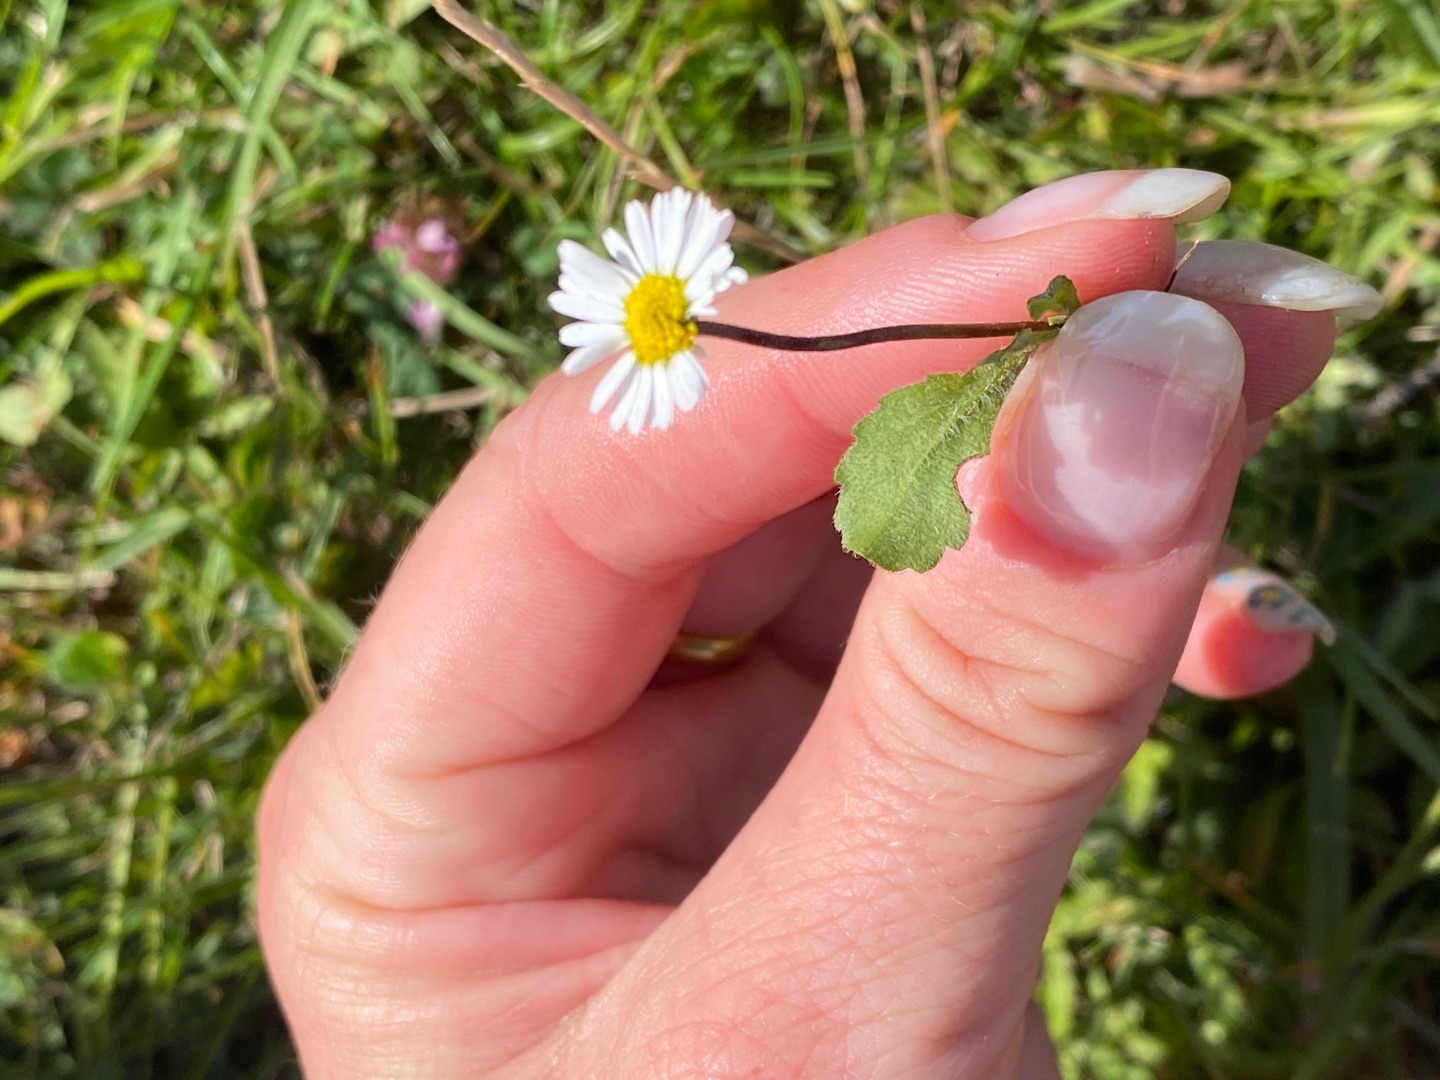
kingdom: Plantae
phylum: Tracheophyta
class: Magnoliopsida
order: Asterales
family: Asteraceae
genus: Bellis
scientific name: Bellis perennis
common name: Tusindfryd
